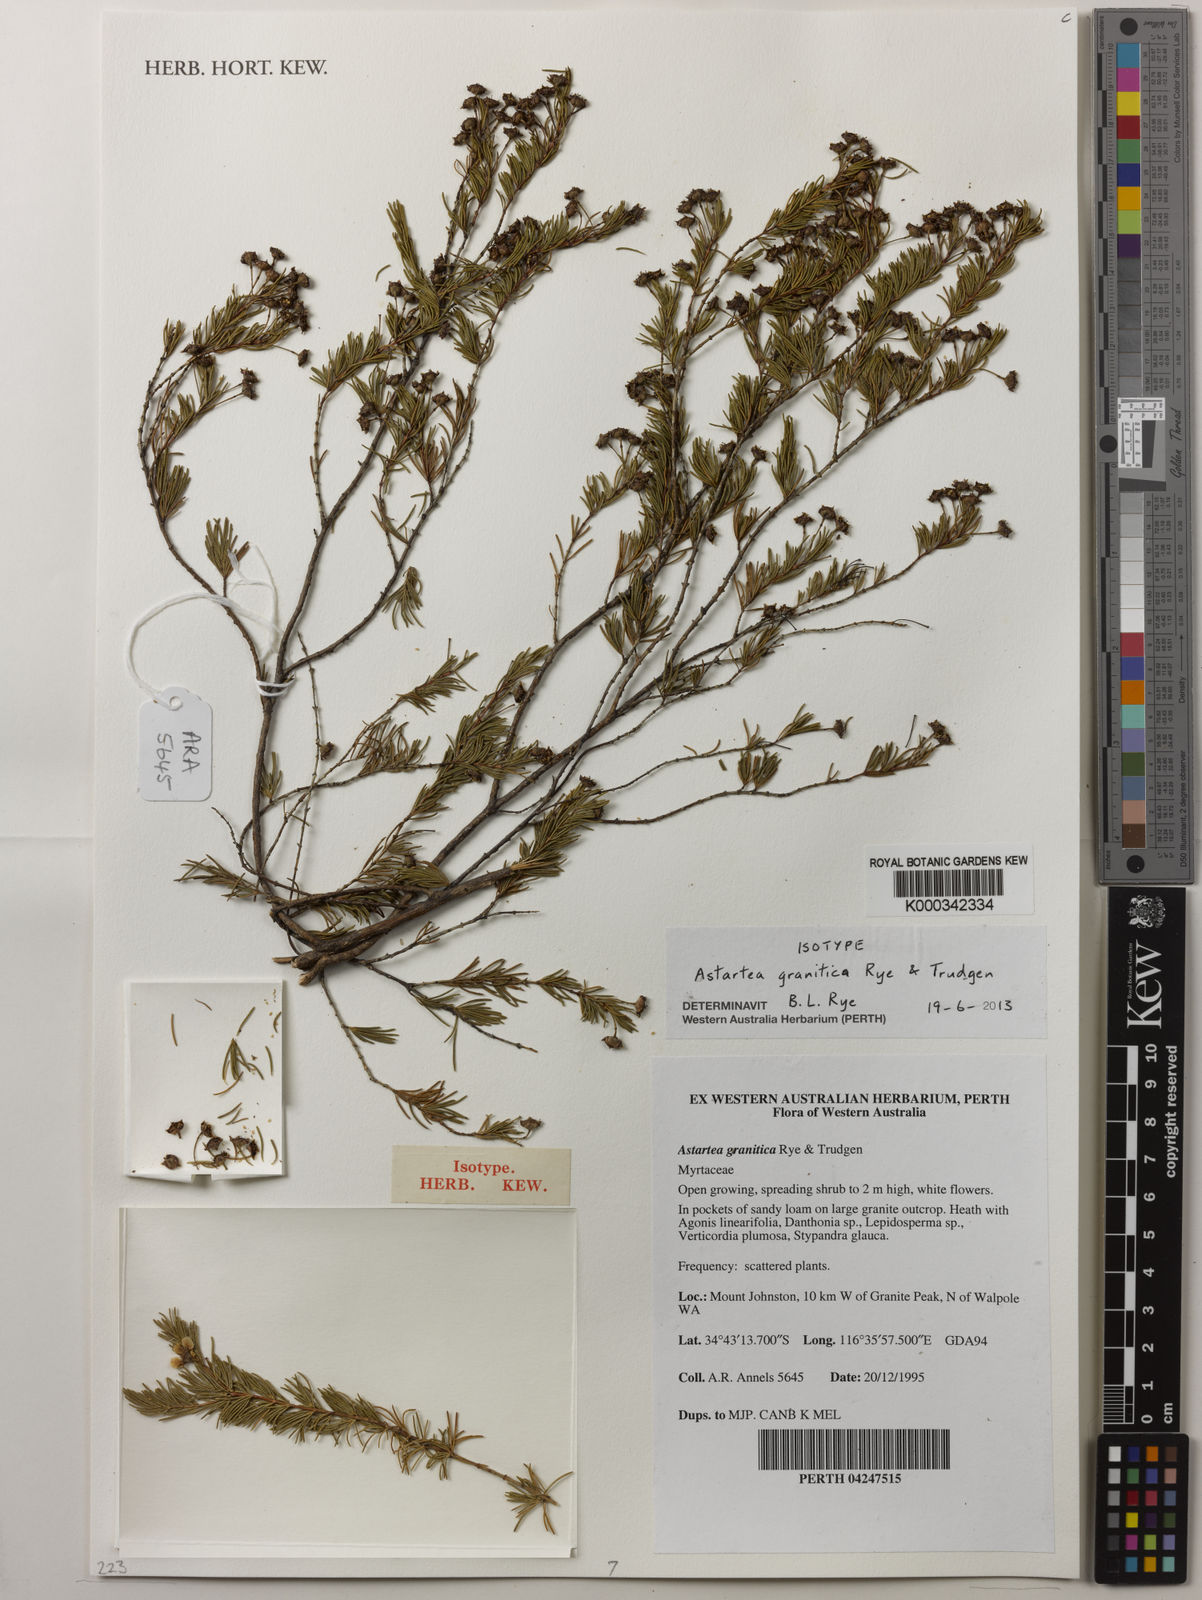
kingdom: Plantae
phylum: Tracheophyta
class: Magnoliopsida
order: Myrtales
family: Myrtaceae
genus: Astartea
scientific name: Astartea granitica
